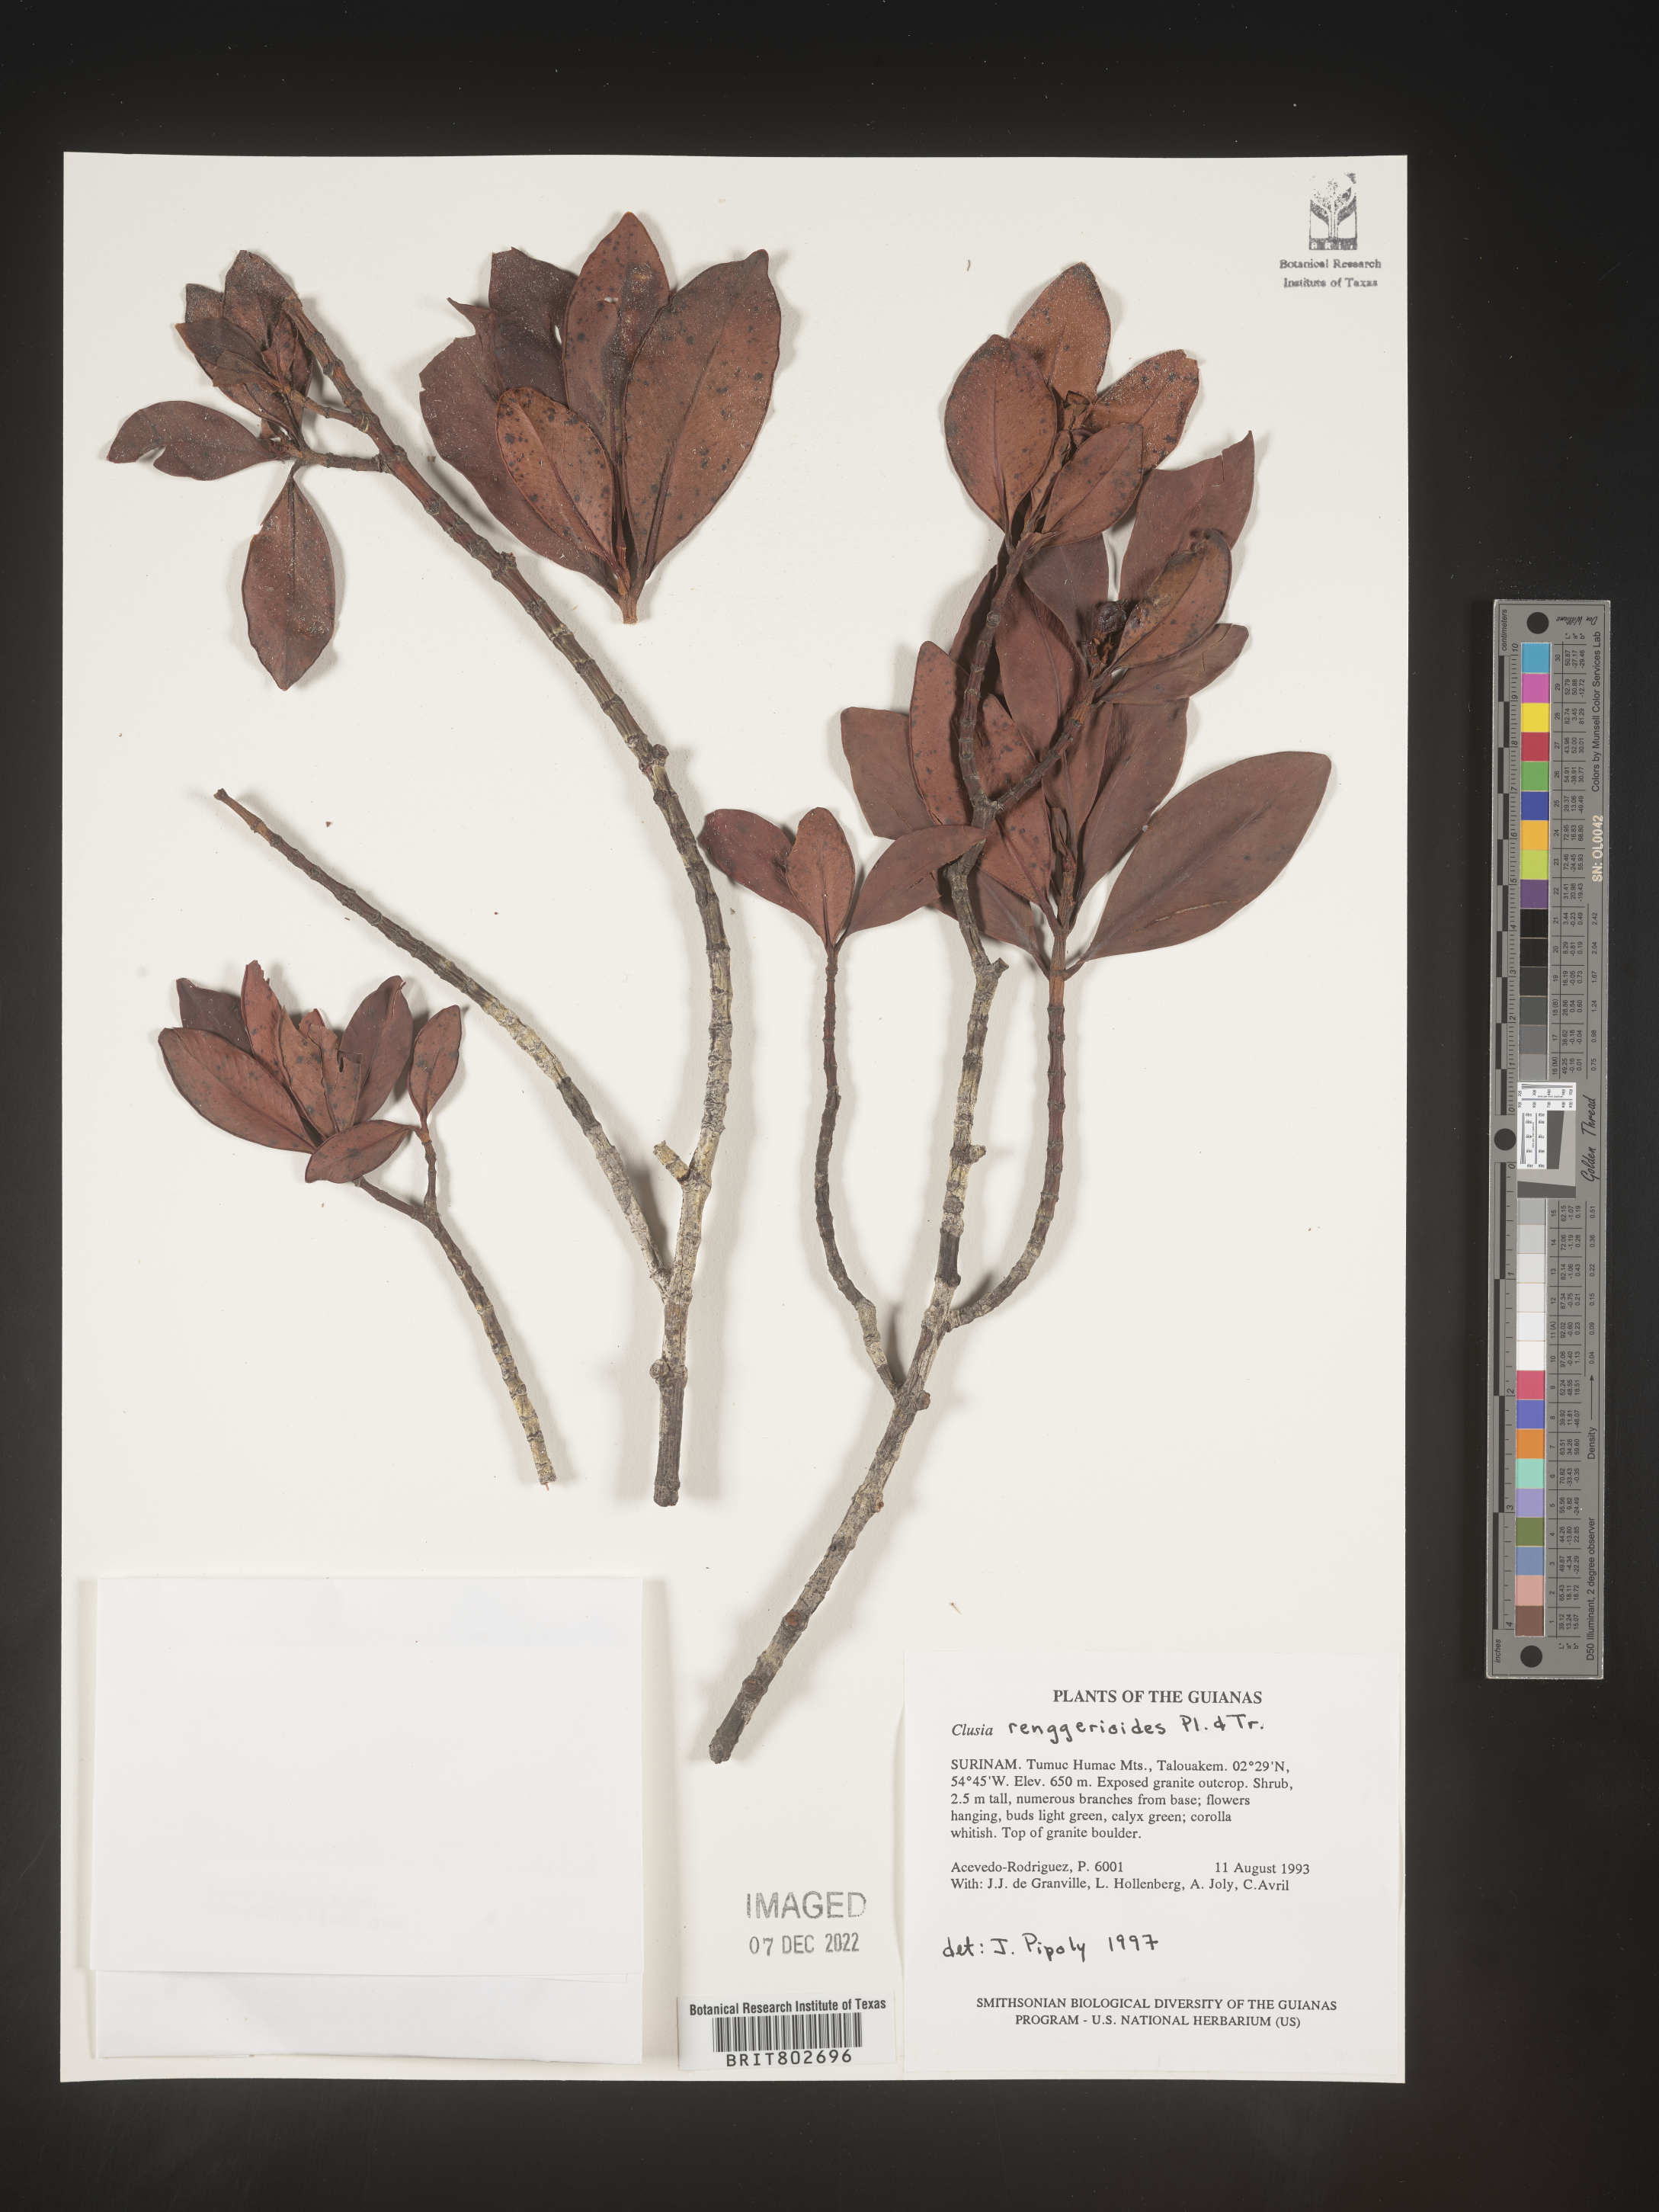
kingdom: Plantae
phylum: Tracheophyta
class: Magnoliopsida
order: Malpighiales
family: Clusiaceae
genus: Clusia
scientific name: Clusia renggerioides
